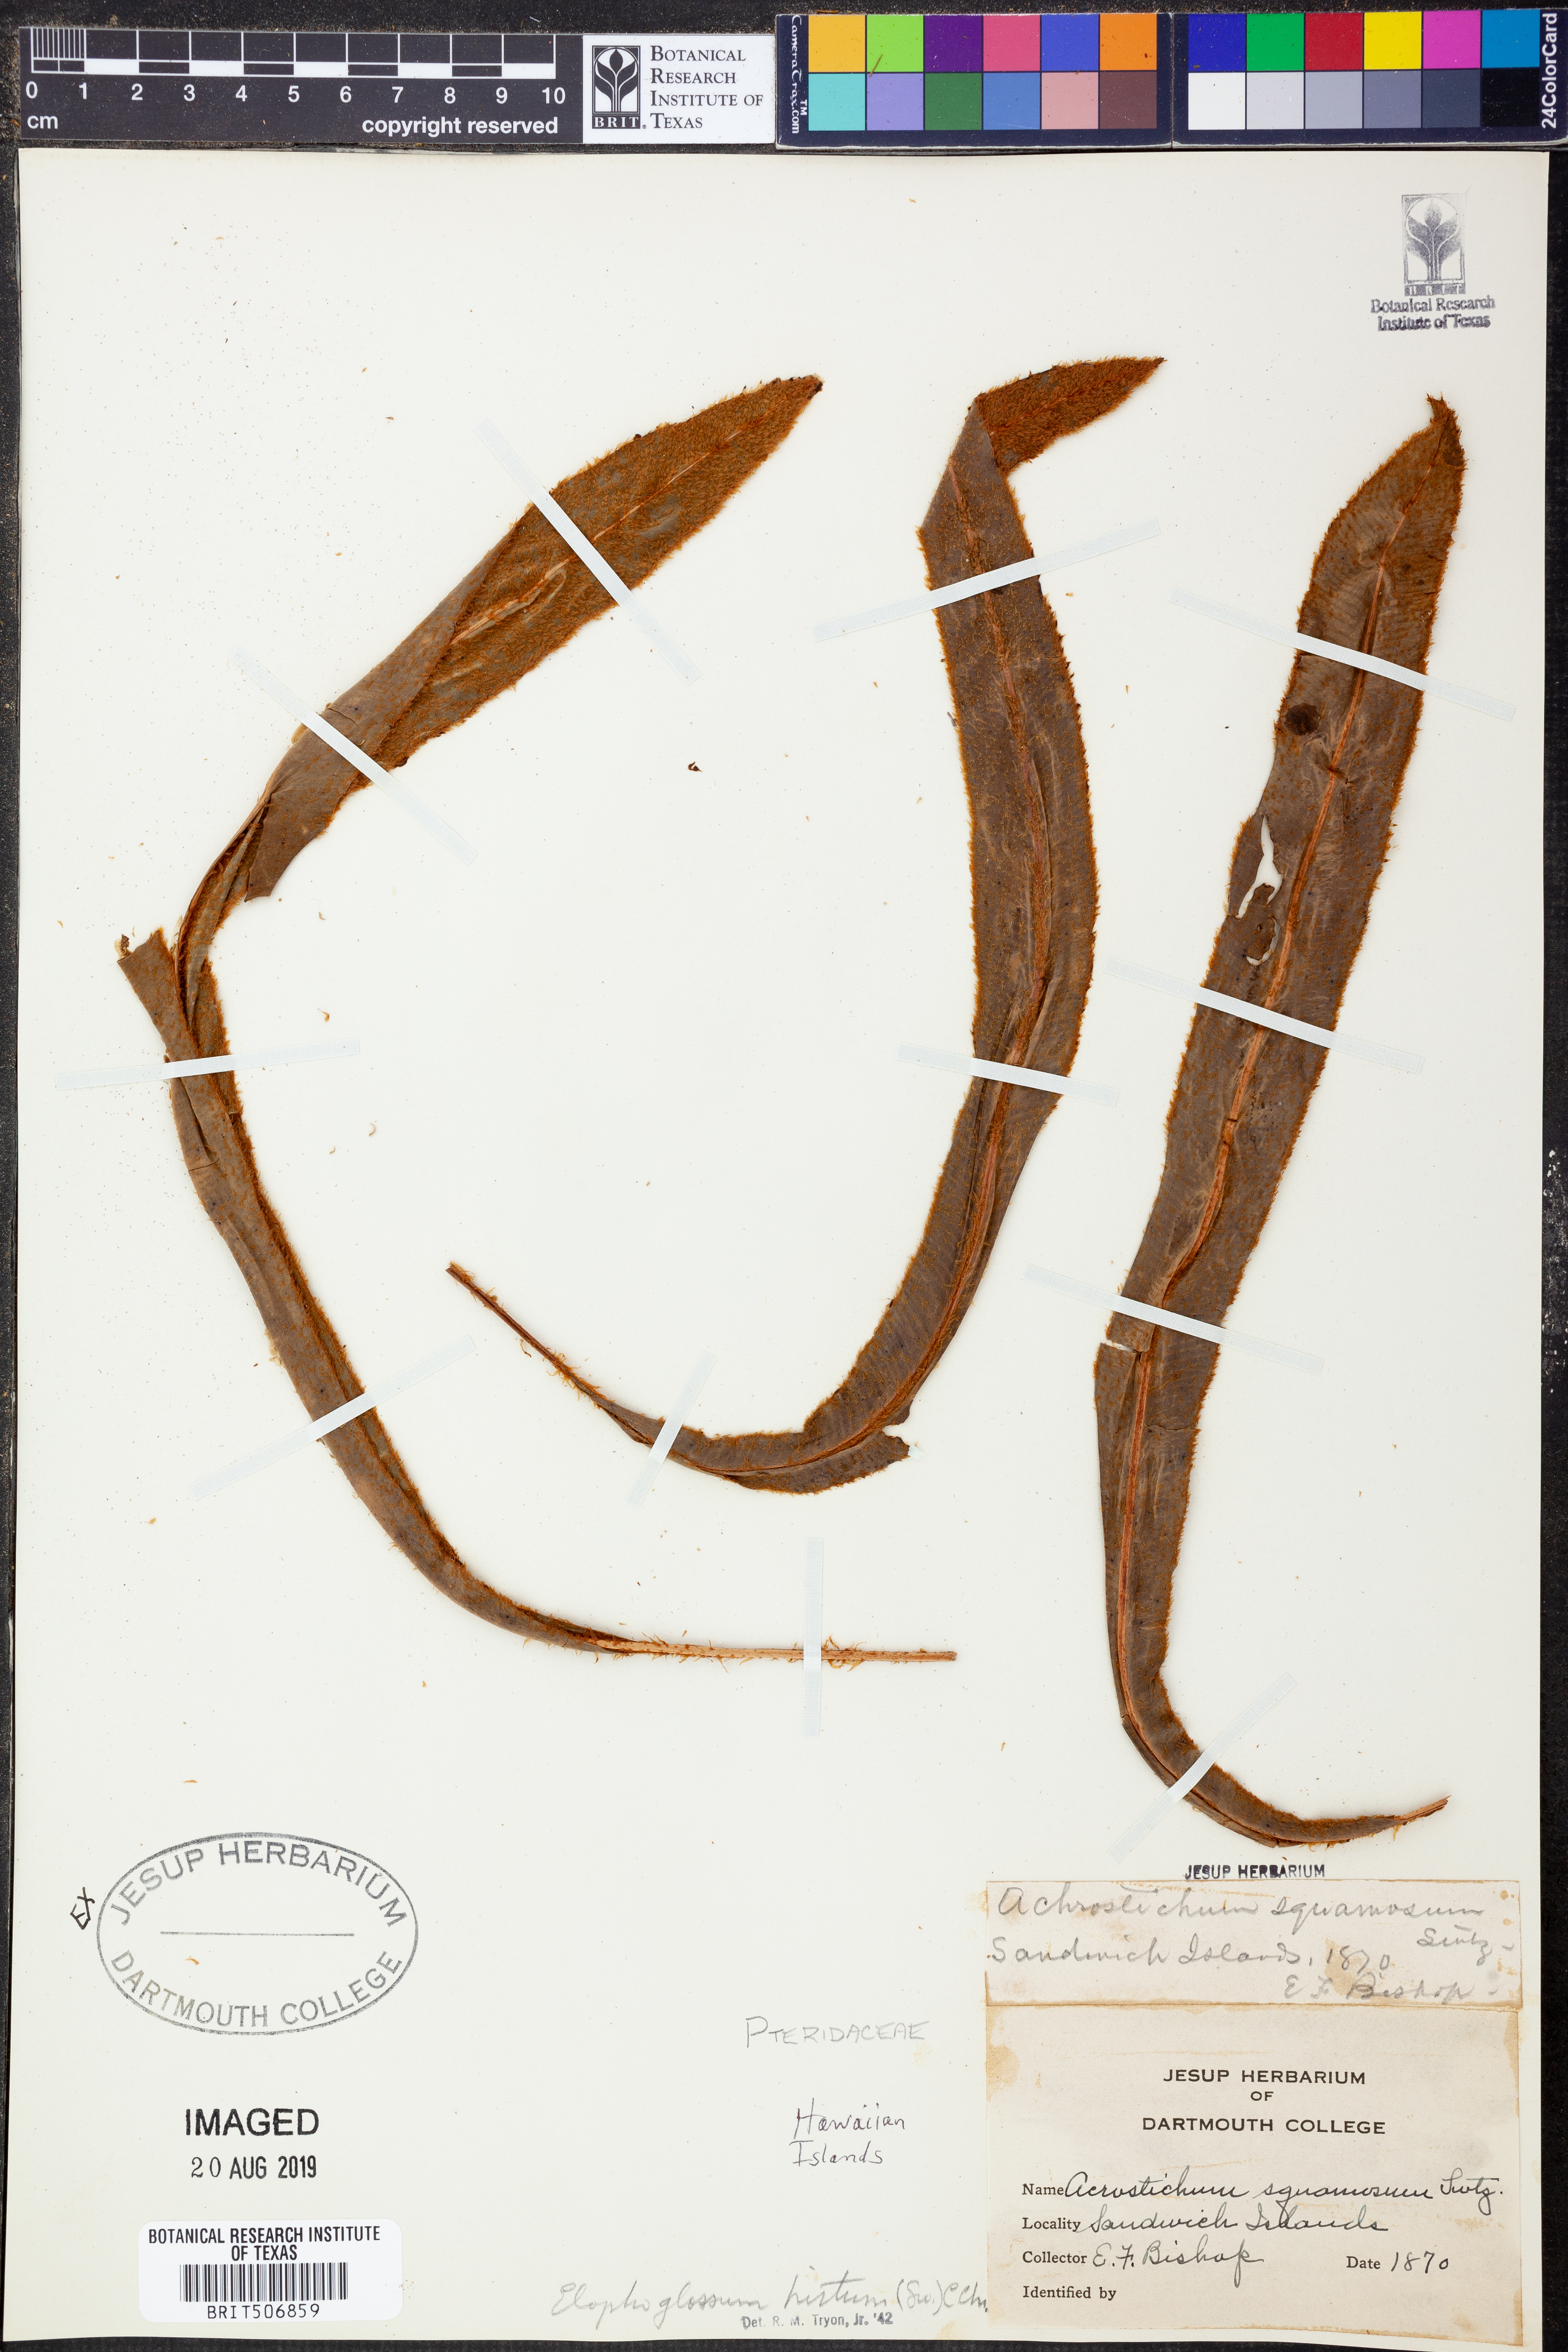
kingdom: Plantae
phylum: Tracheophyta
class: Polypodiopsida
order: Polypodiales
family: Dryopteridaceae
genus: Elaphoglossum
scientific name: Elaphoglossum hirtum
